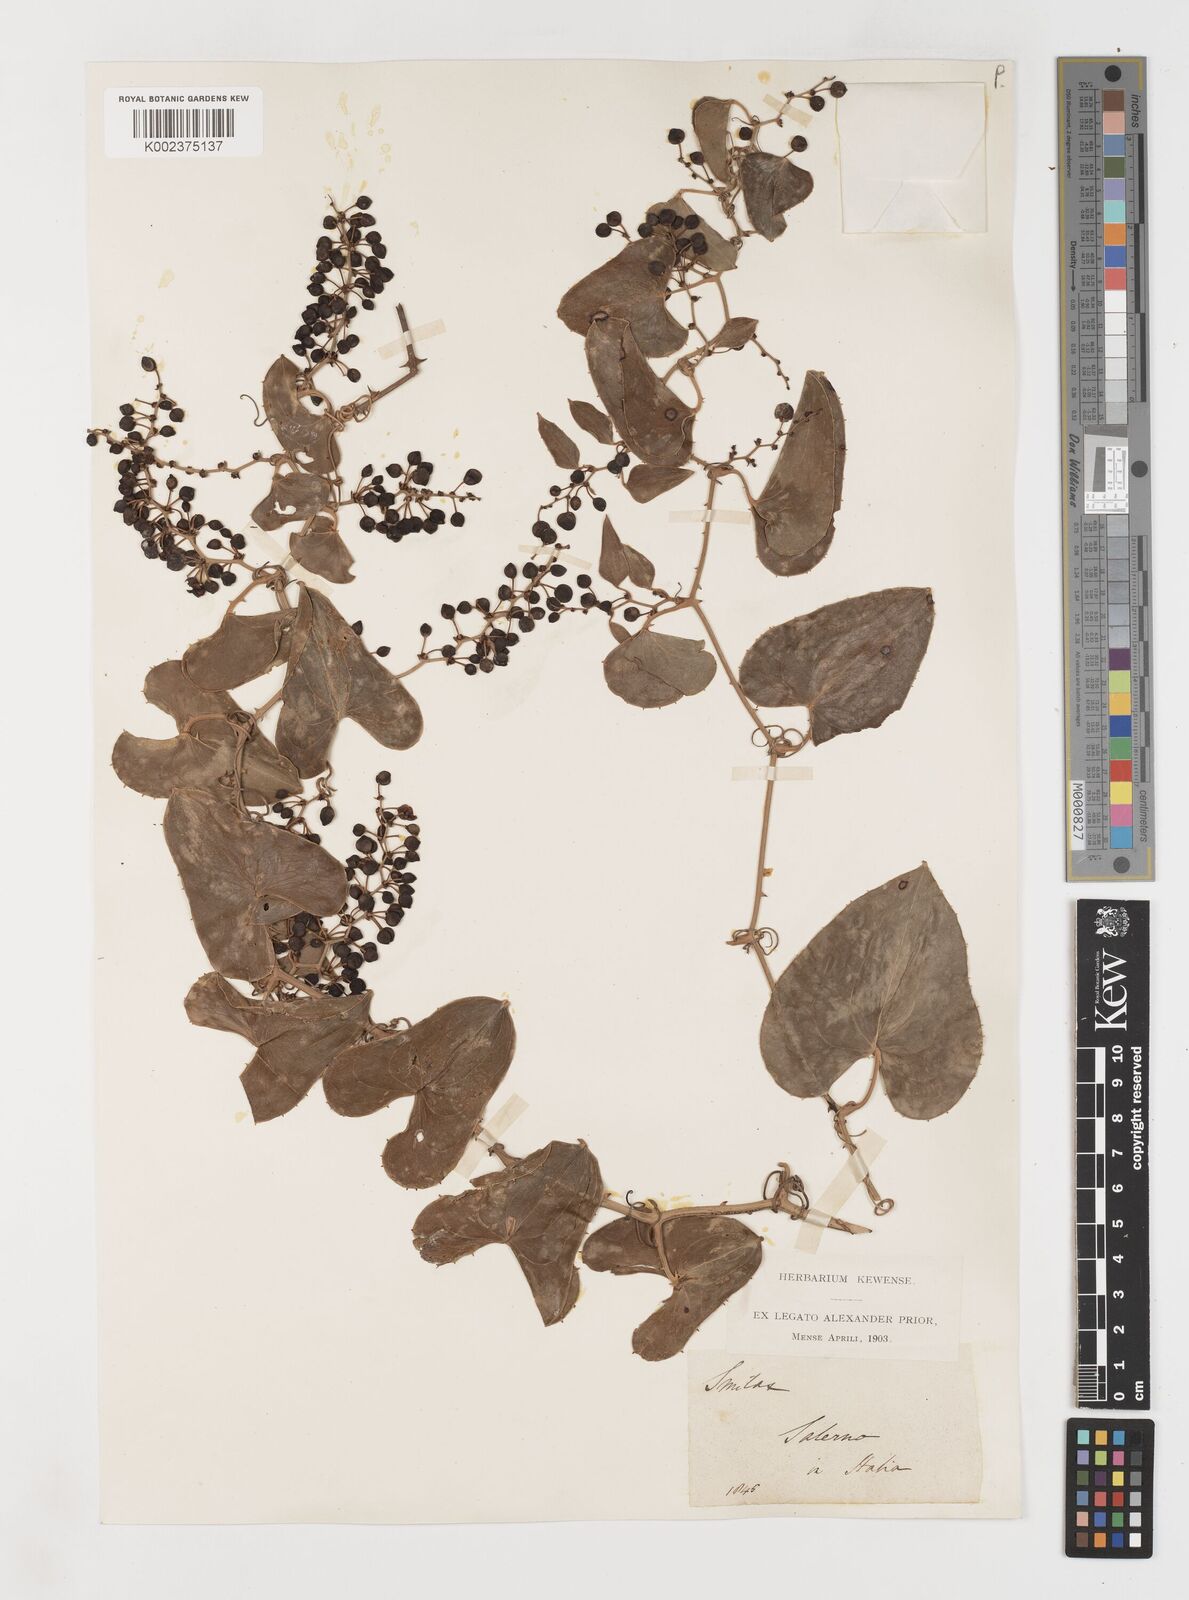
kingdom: Plantae
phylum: Tracheophyta
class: Liliopsida
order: Liliales
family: Smilacaceae
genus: Smilax
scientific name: Smilax aspera
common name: Common smilax
